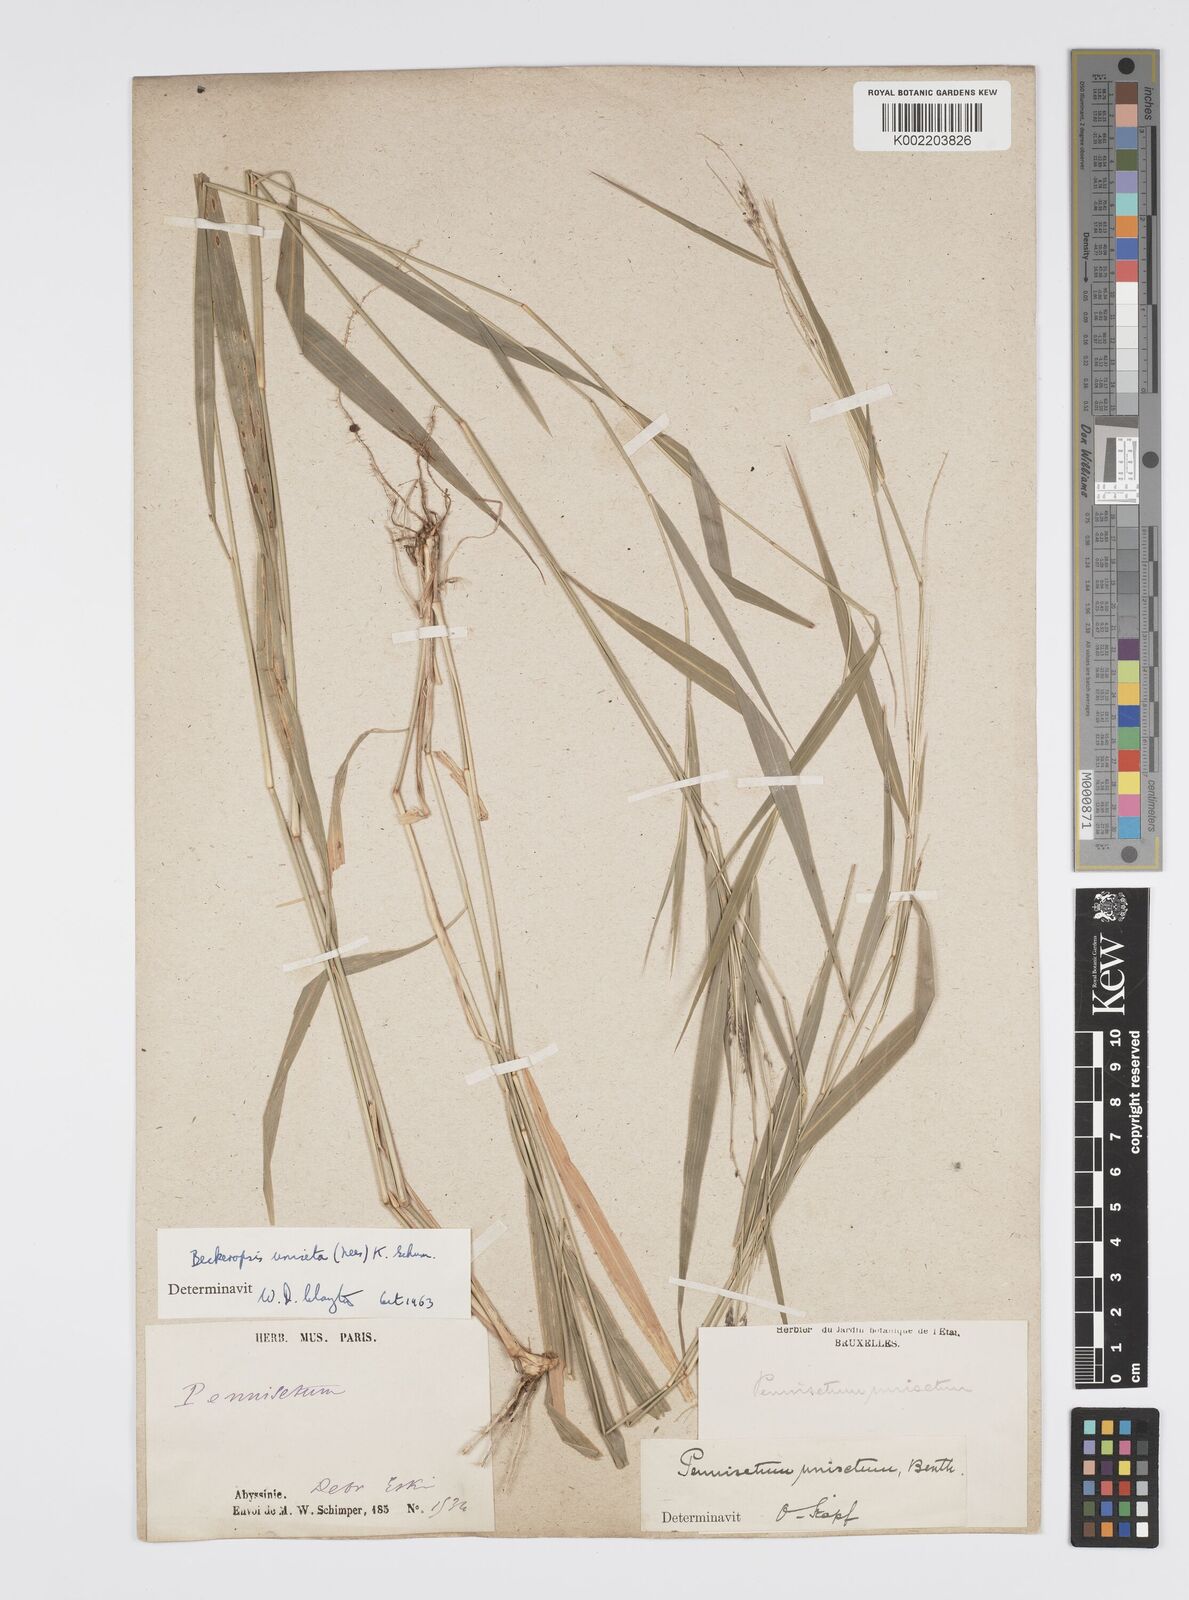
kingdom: Plantae
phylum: Tracheophyta
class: Liliopsida
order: Poales
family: Poaceae
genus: Cenchrus
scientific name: Cenchrus unisetus
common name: Natal grass
